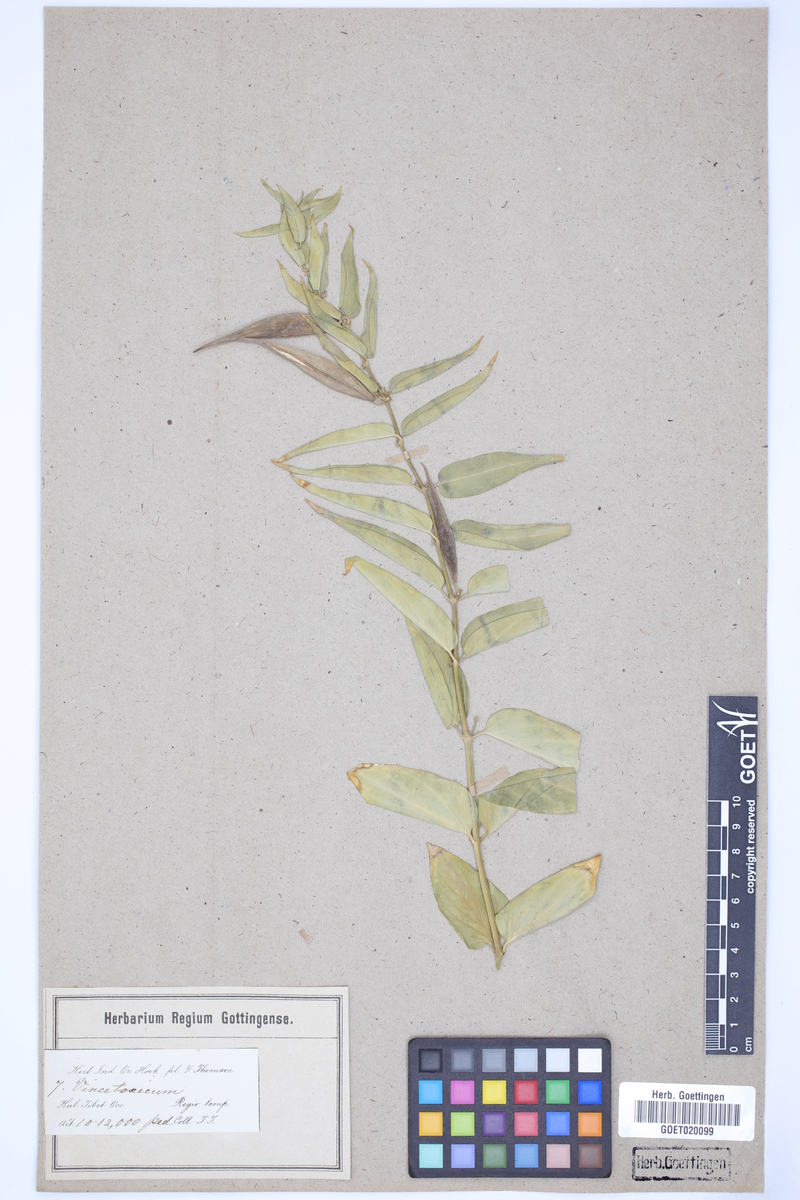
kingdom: Plantae
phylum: Tracheophyta
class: Magnoliopsida
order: Gentianales
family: Apocynaceae
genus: Vincetoxicum
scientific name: Vincetoxicum canescens
